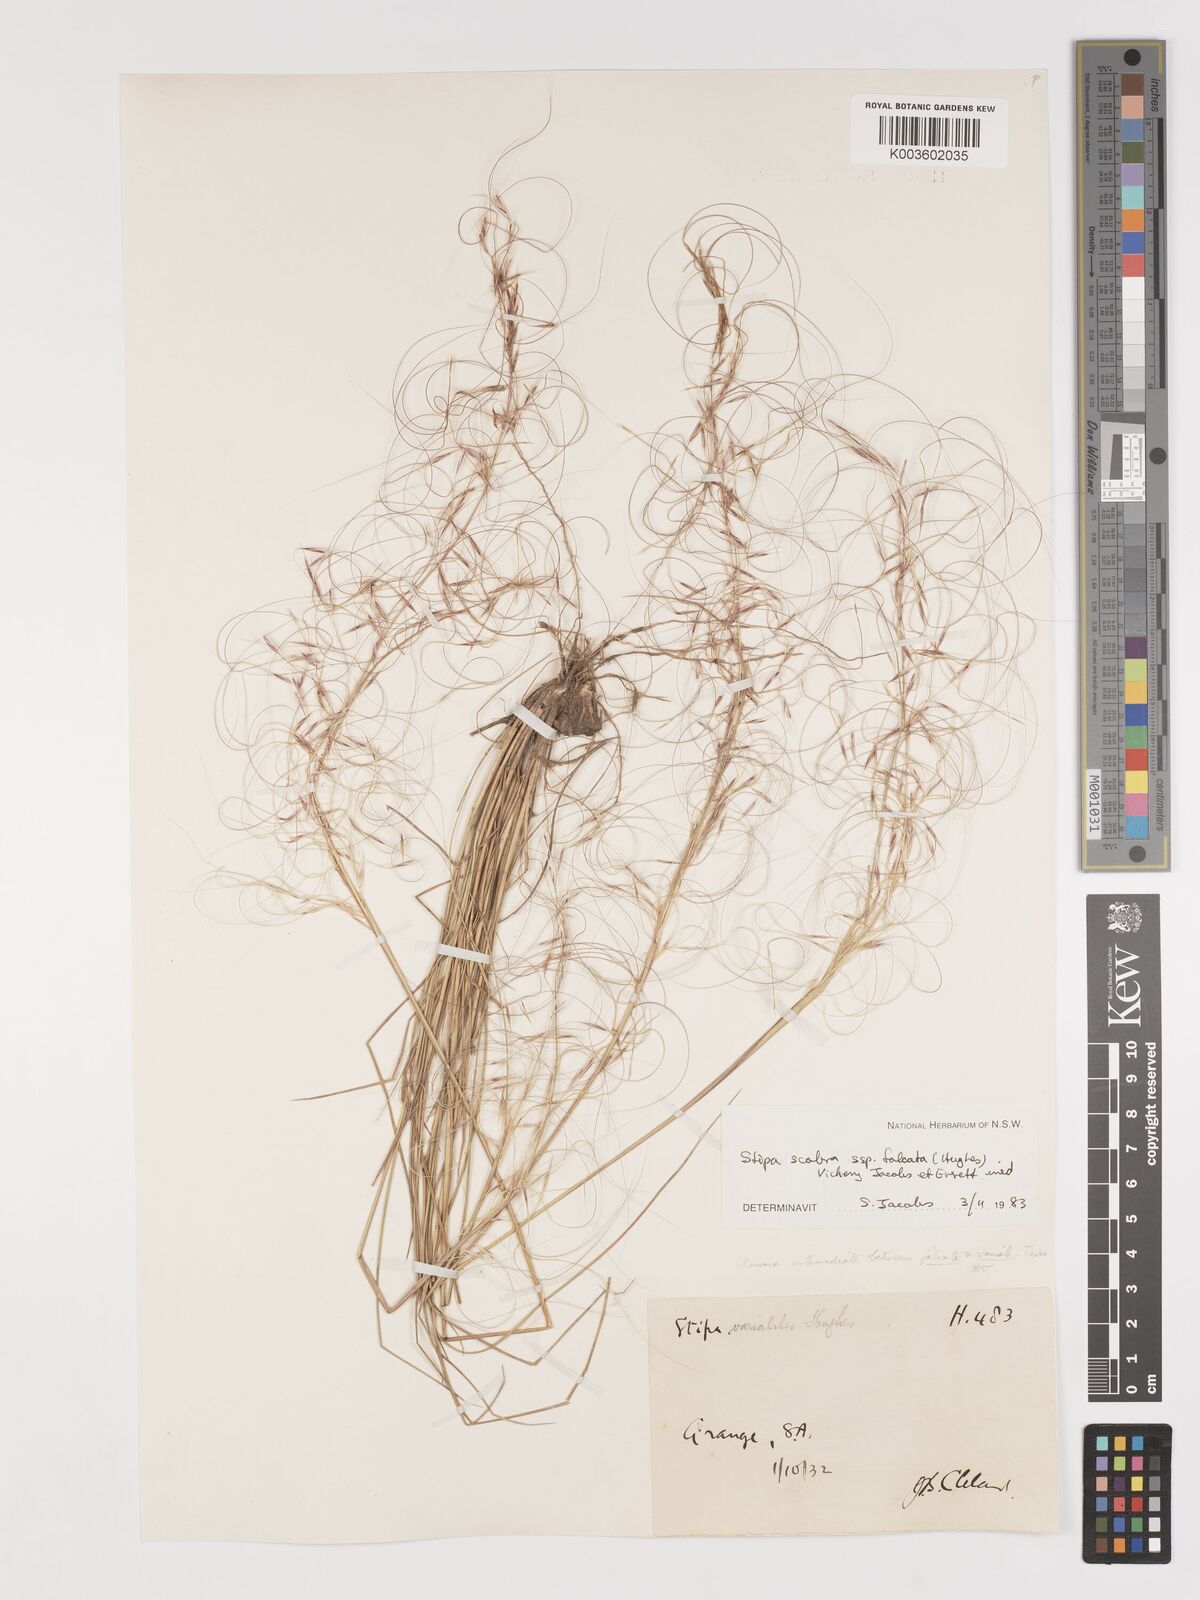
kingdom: Plantae
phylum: Tracheophyta
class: Liliopsida
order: Poales
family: Poaceae
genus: Austrostipa
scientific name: Austrostipa scabra
